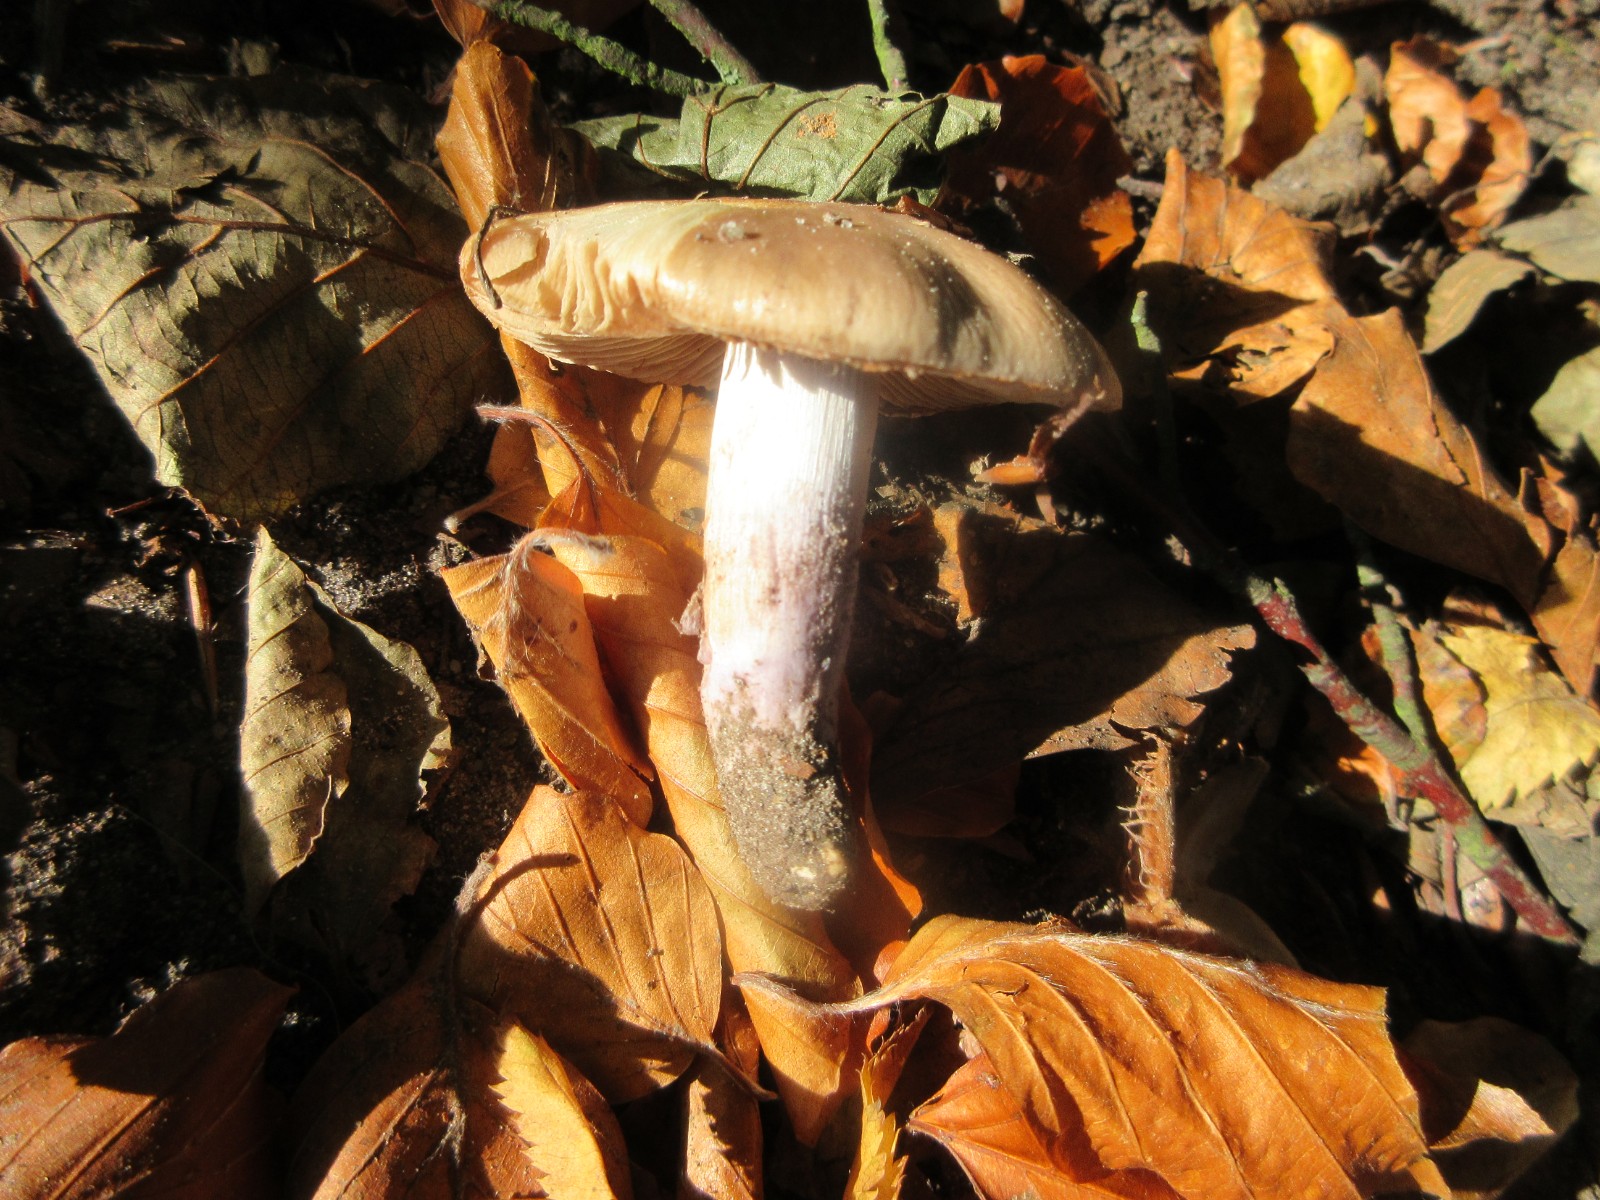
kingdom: Fungi
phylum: Basidiomycota
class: Agaricomycetes
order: Agaricales
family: Cortinariaceae
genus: Cortinarius
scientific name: Cortinarius elatior
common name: høj slørhat
